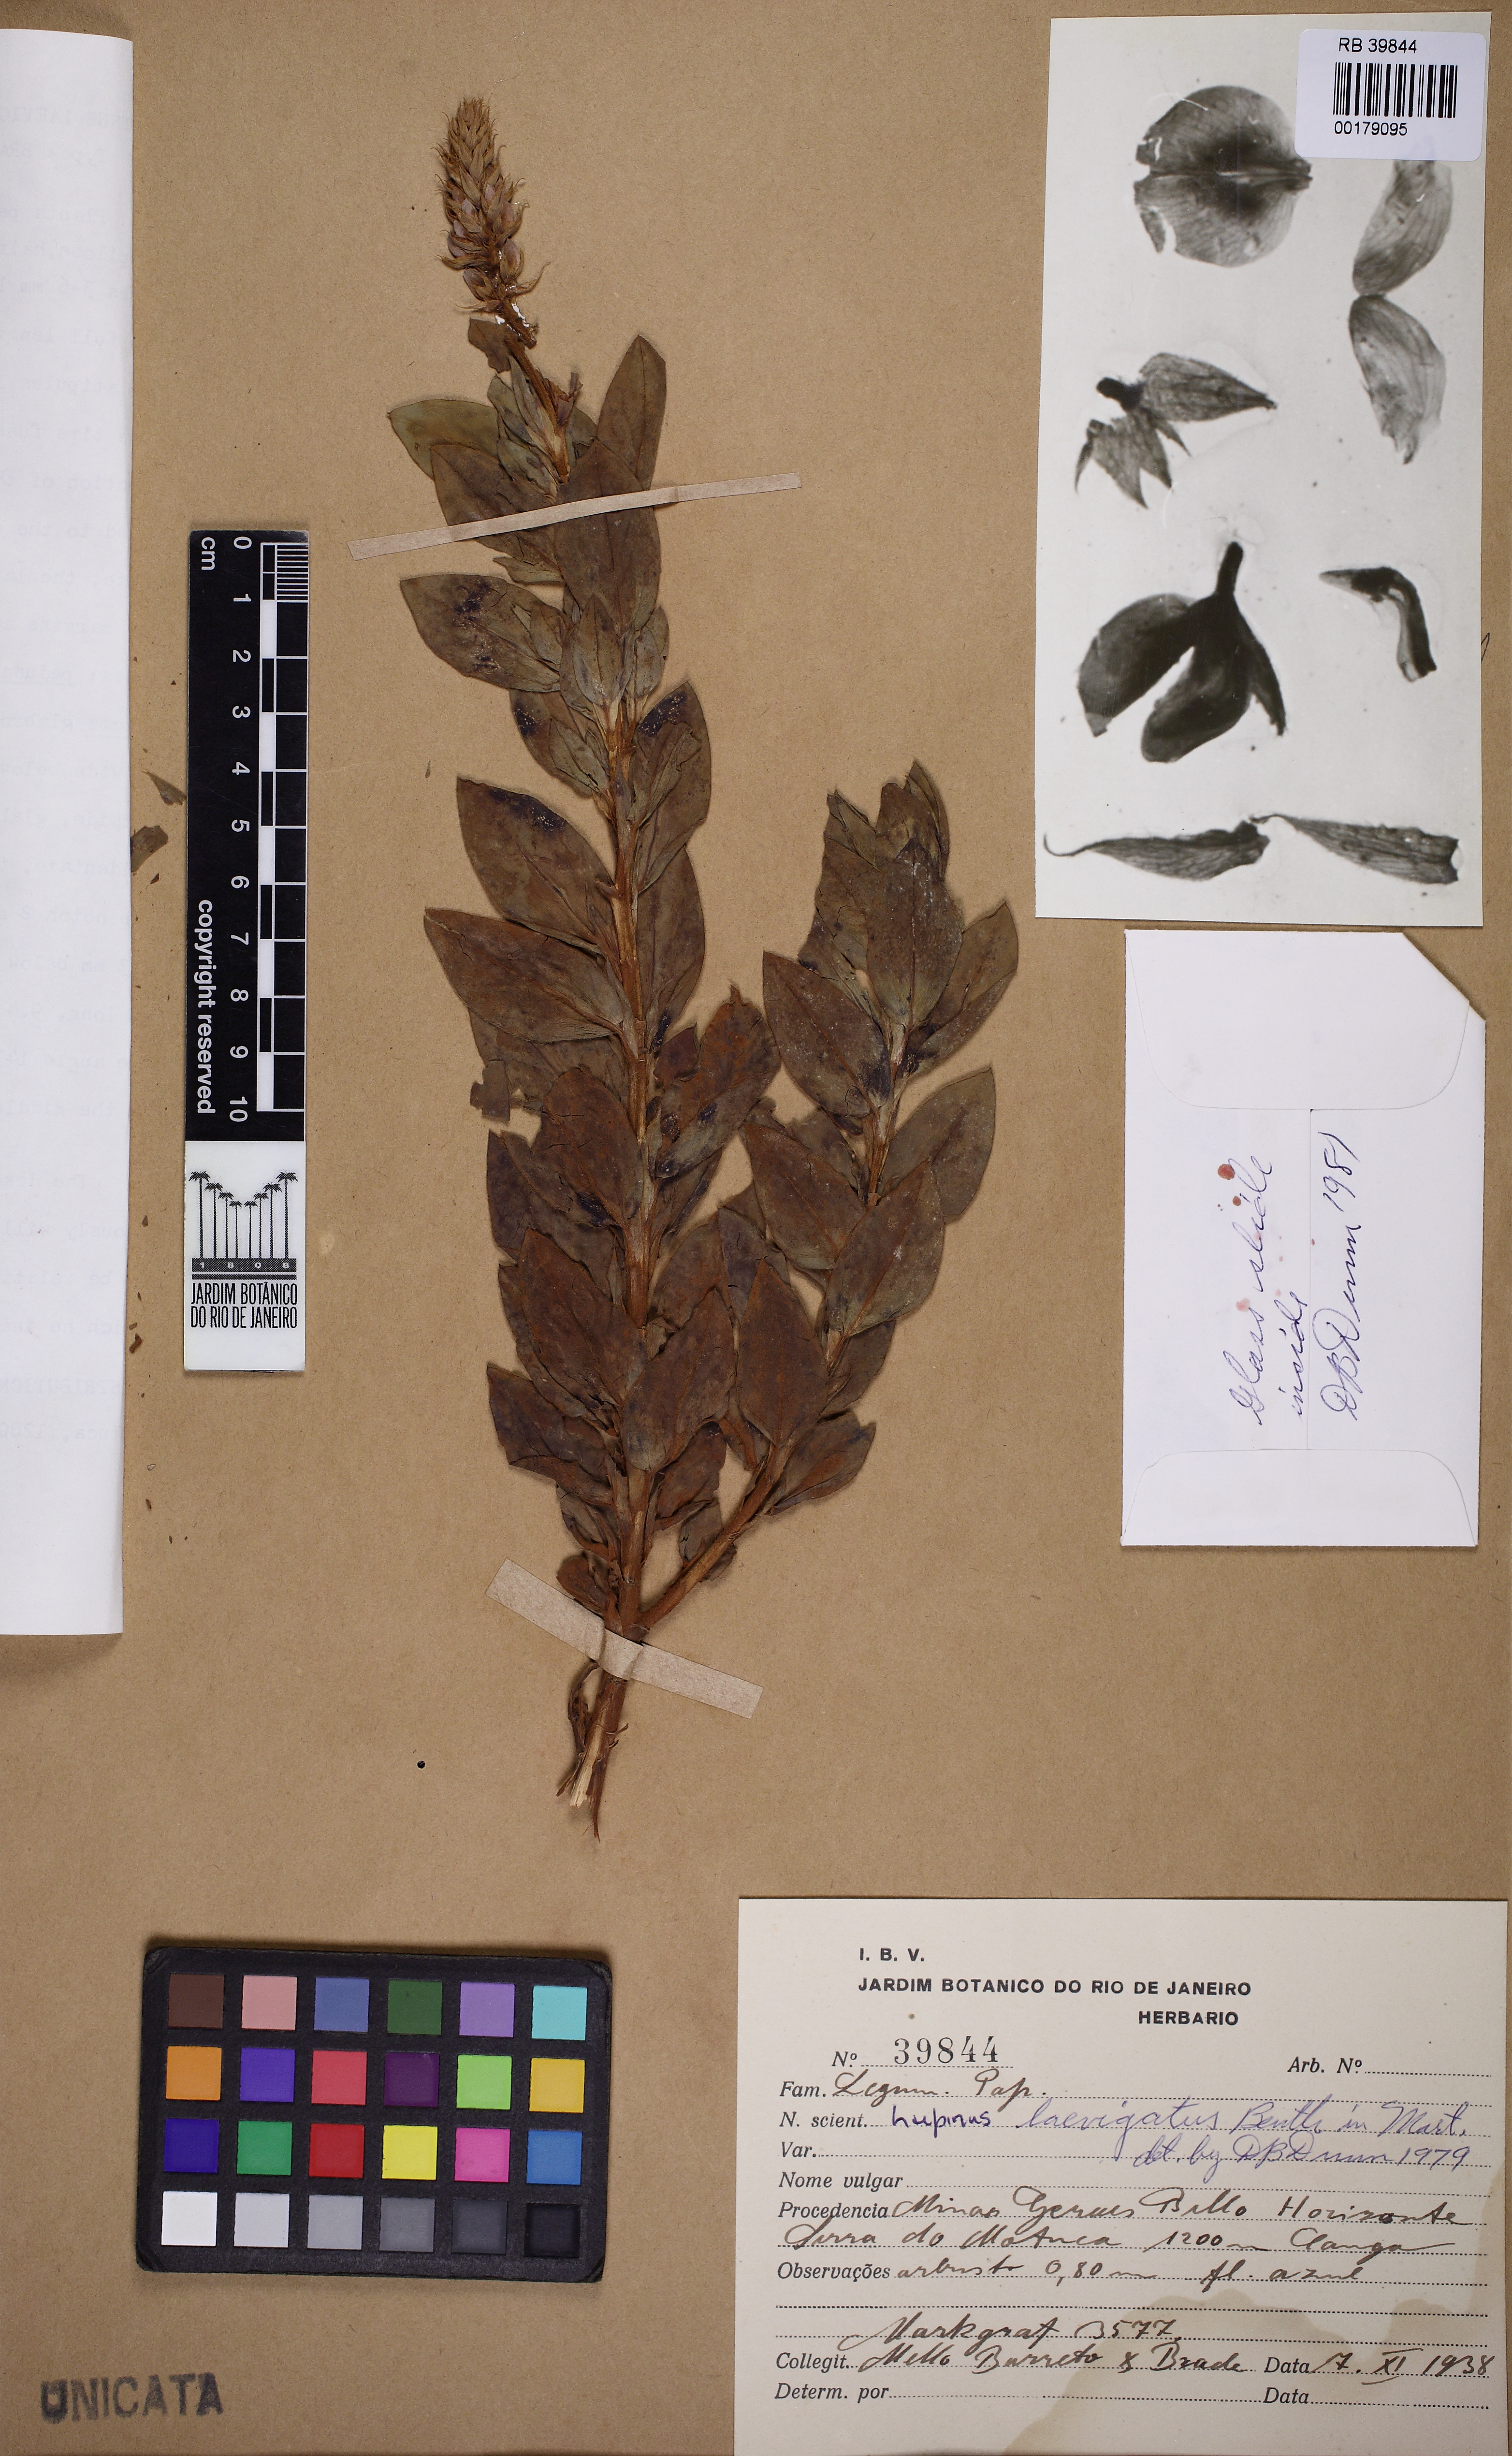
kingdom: Plantae
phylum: Tracheophyta
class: Magnoliopsida
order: Fabales
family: Fabaceae
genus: Lupinus
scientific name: Lupinus laevigatus
